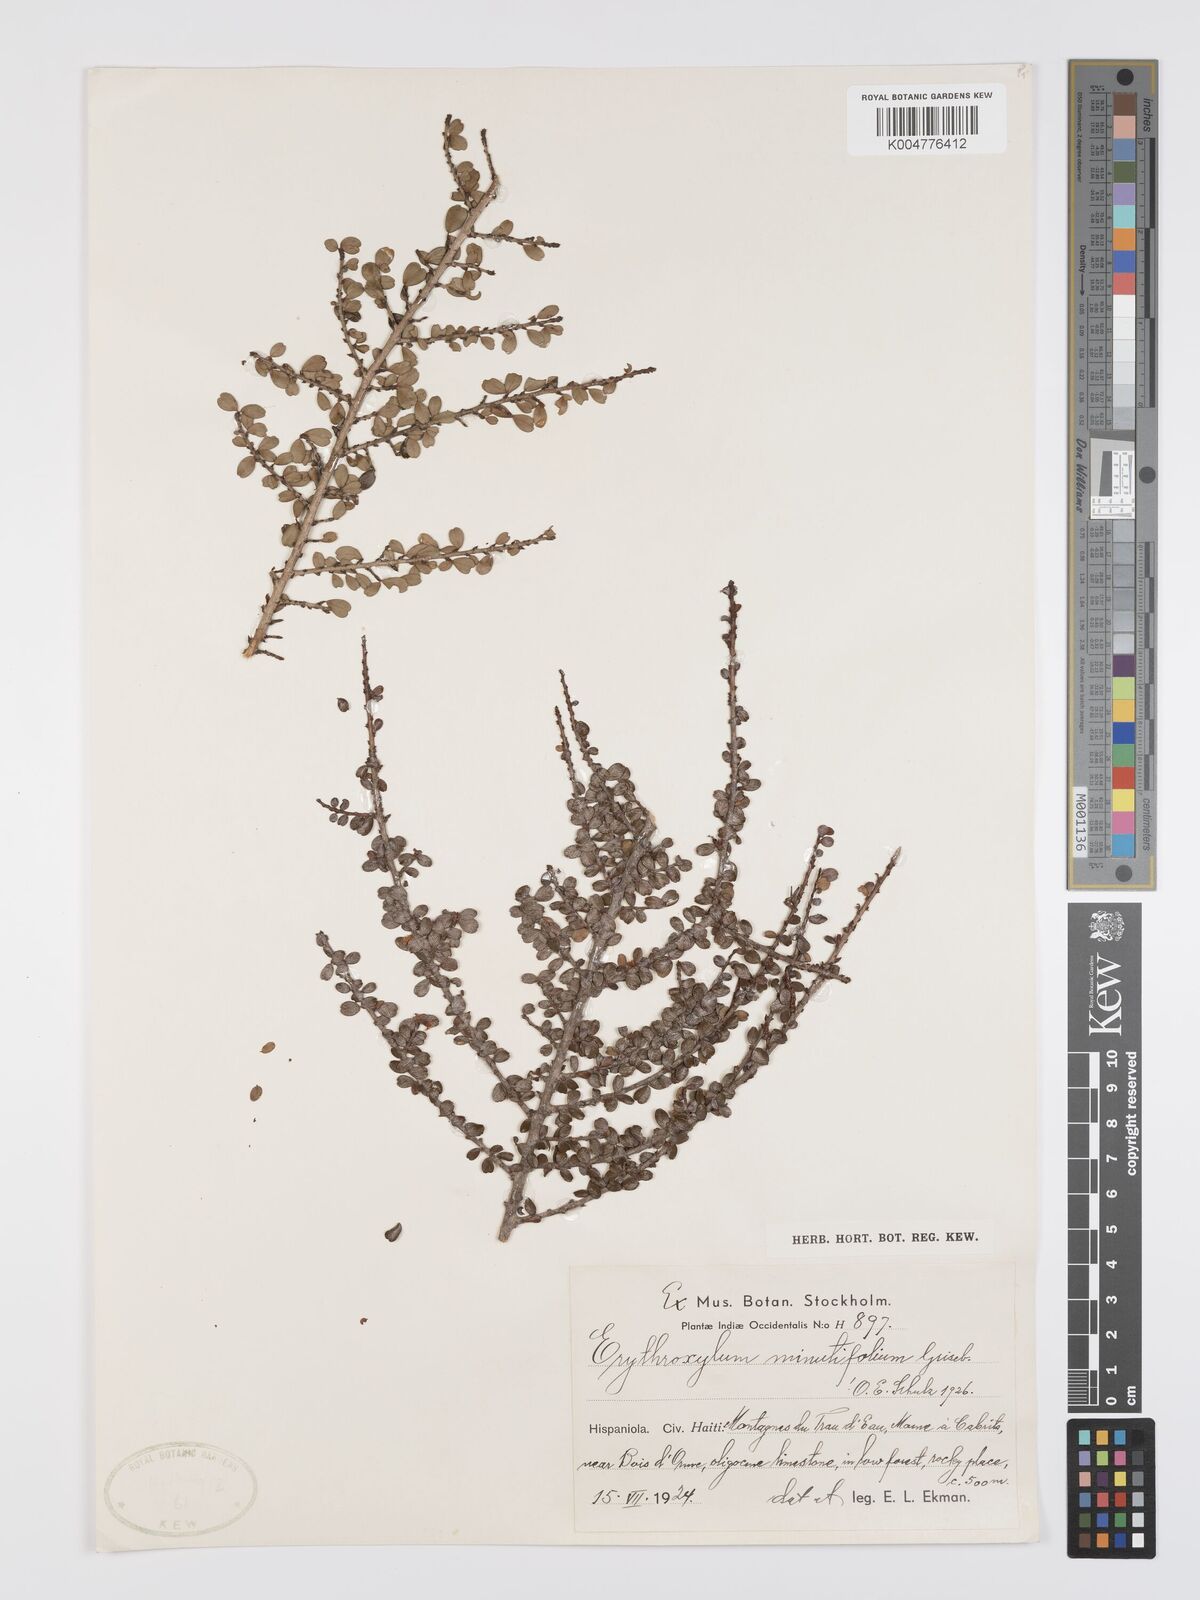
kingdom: Plantae
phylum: Tracheophyta
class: Magnoliopsida
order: Malpighiales
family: Erythroxylaceae
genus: Erythroxylum
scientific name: Erythroxylum minutifolium
